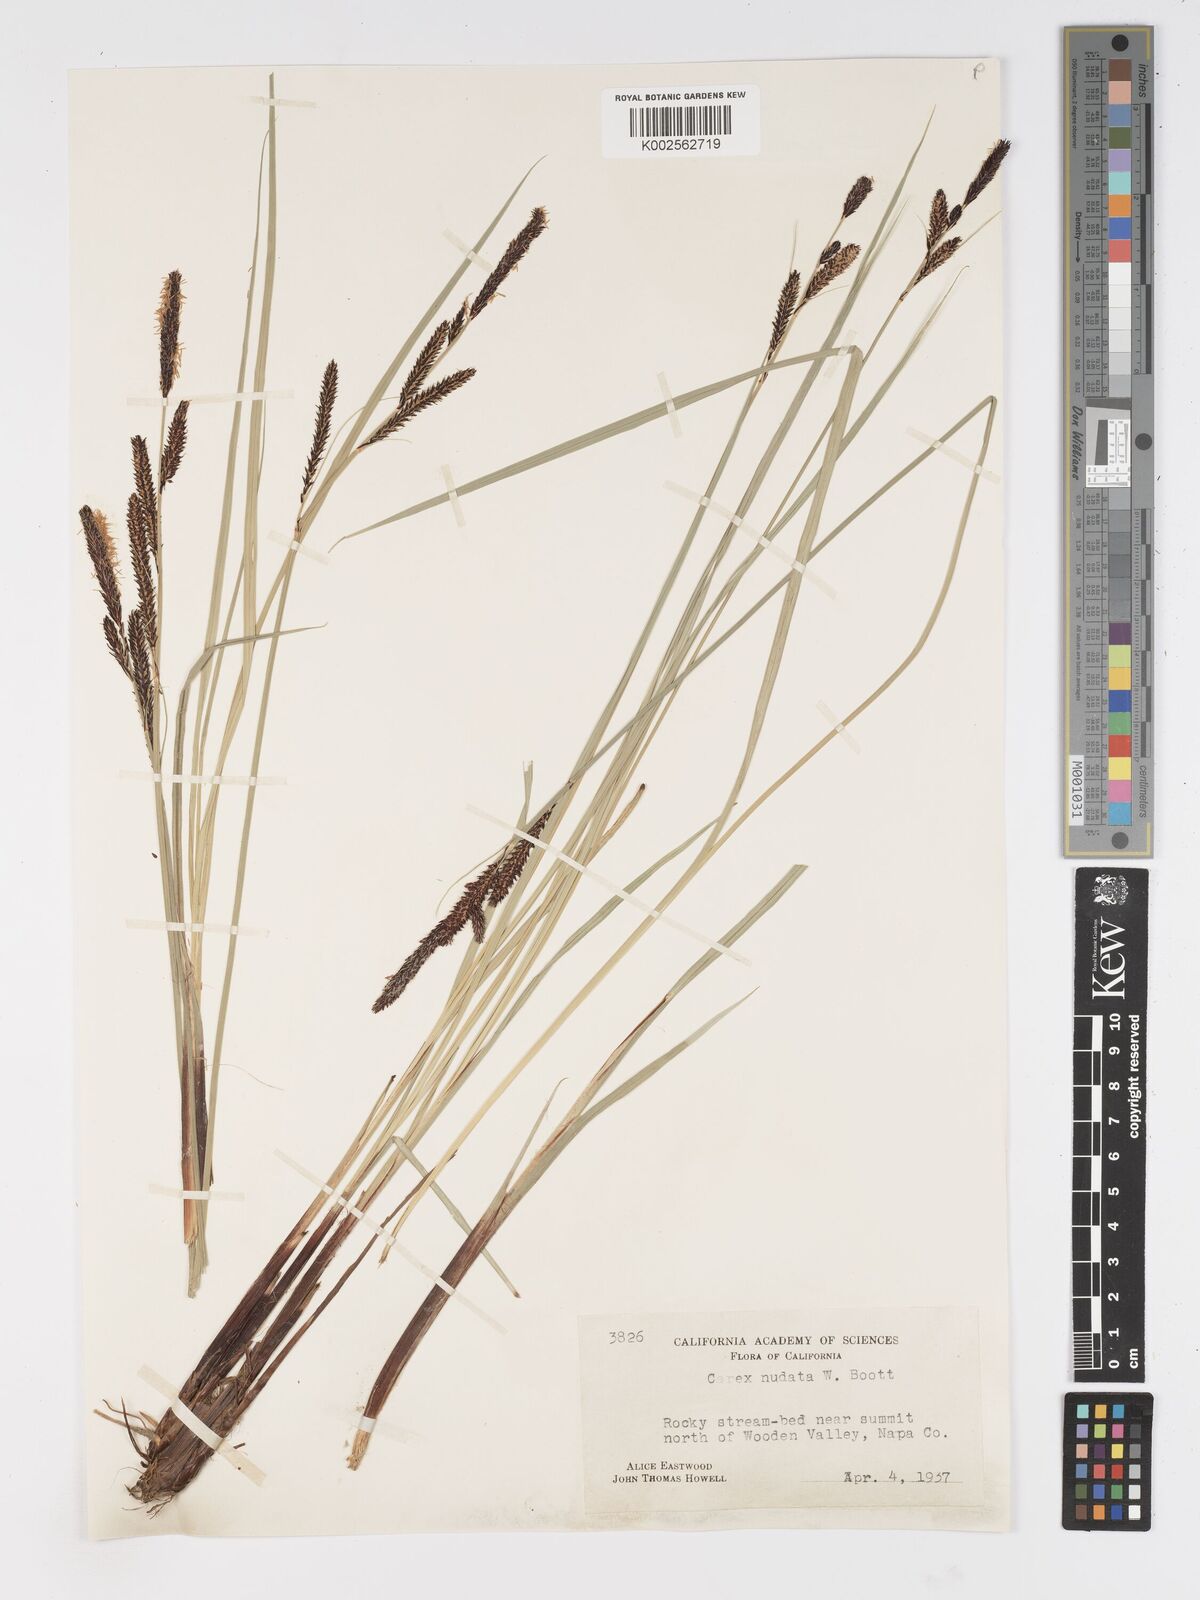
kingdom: Plantae
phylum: Tracheophyta
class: Liliopsida
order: Poales
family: Cyperaceae
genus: Carex
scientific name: Carex nudata
